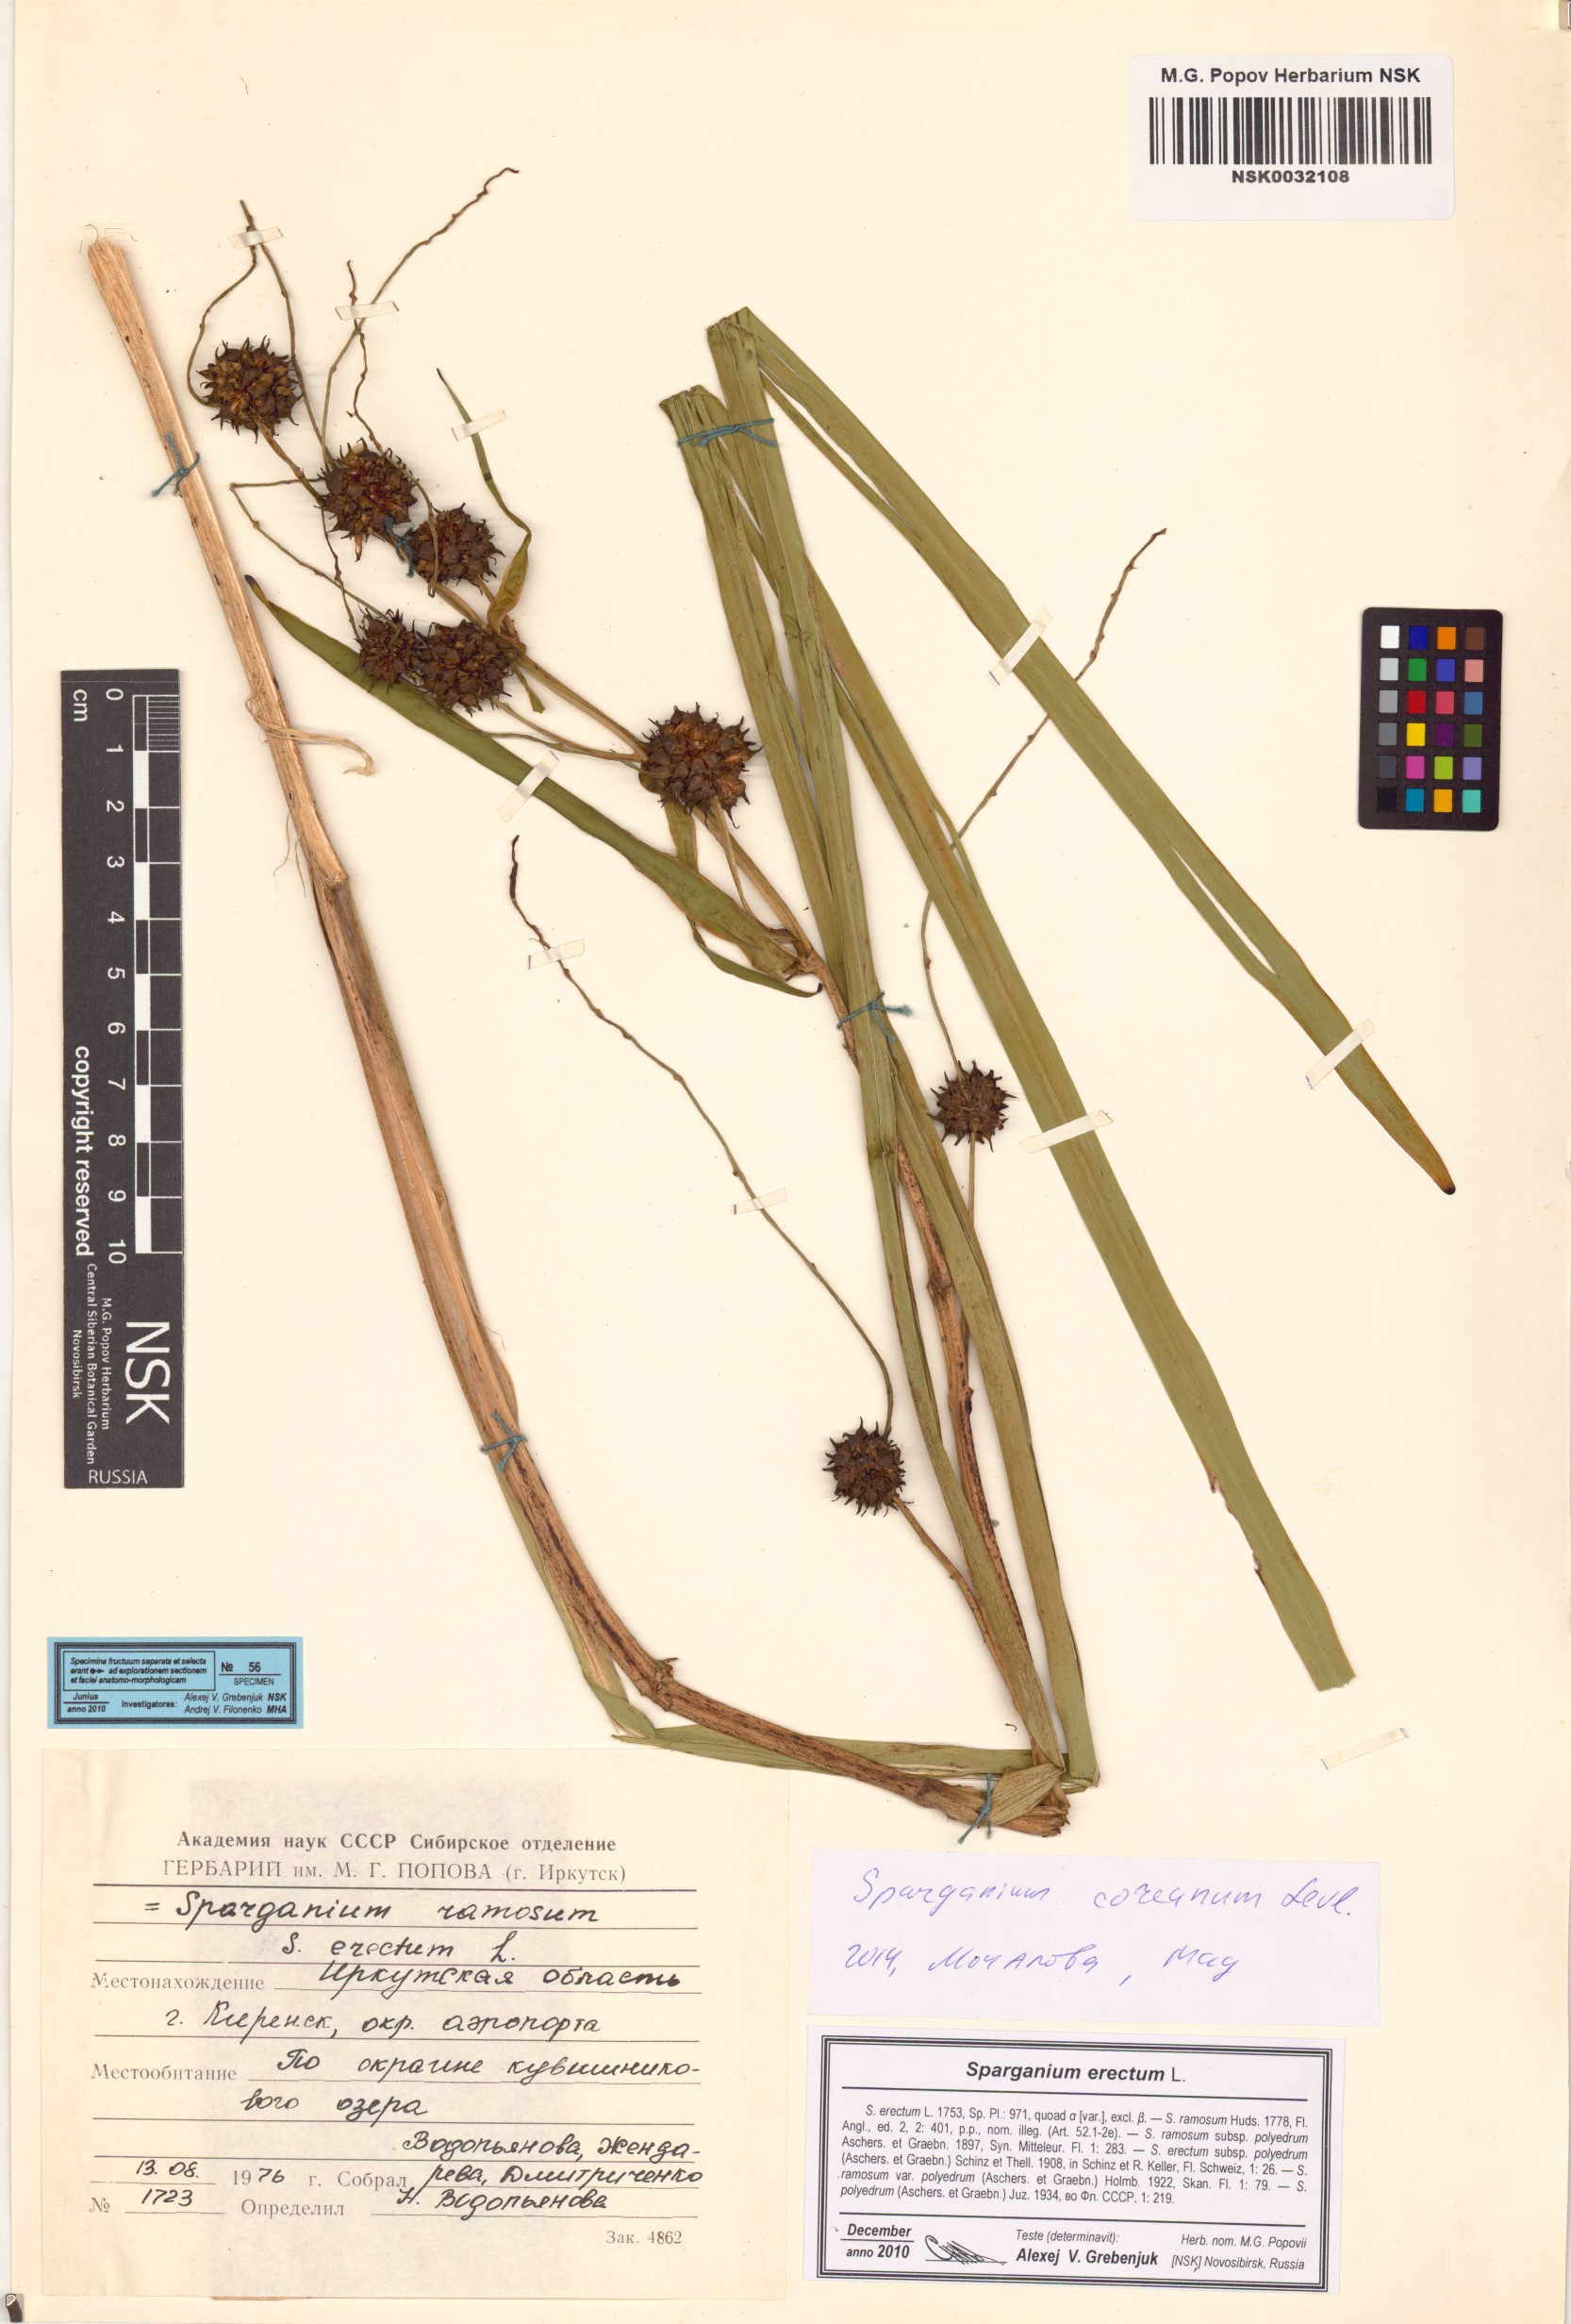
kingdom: Plantae
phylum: Tracheophyta
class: Liliopsida
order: Poales
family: Typhaceae
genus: Sparganium
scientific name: Sparganium erectum
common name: Branched bur-reed
